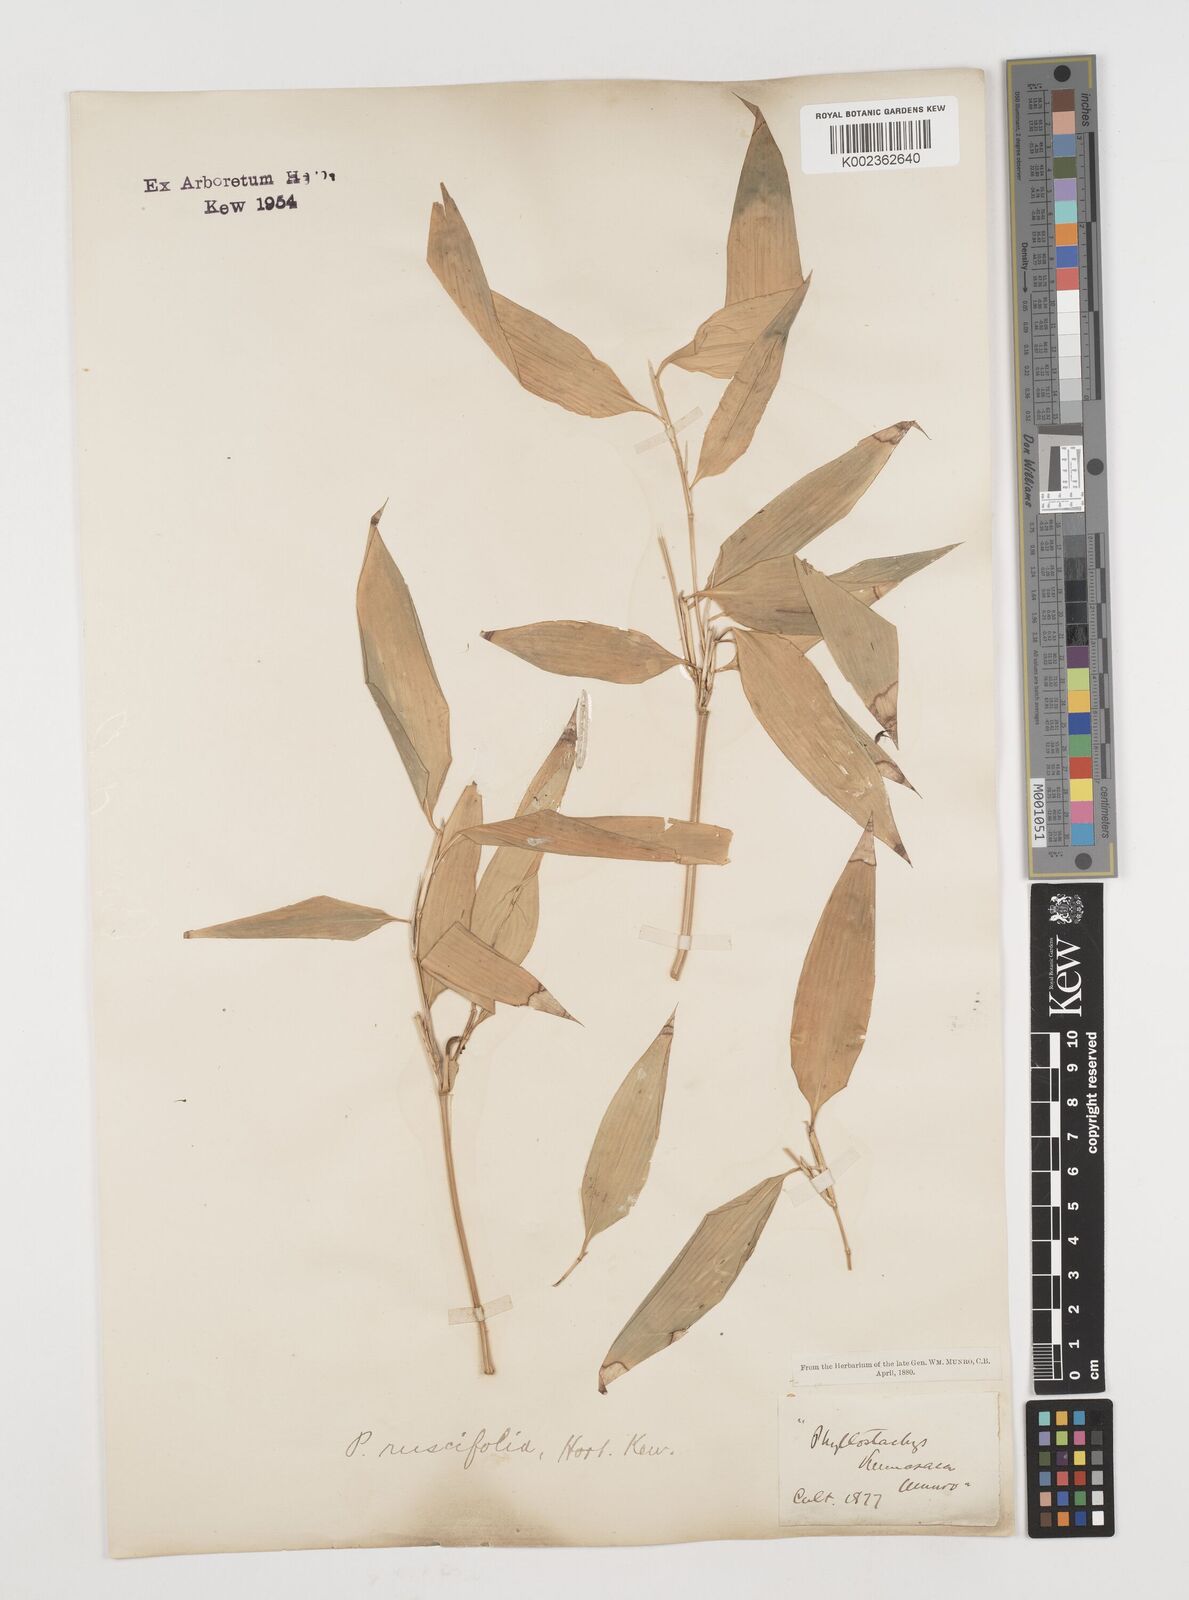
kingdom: Plantae
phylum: Tracheophyta
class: Liliopsida
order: Poales
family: Poaceae
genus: Shibataea
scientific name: Shibataea kumasasa
